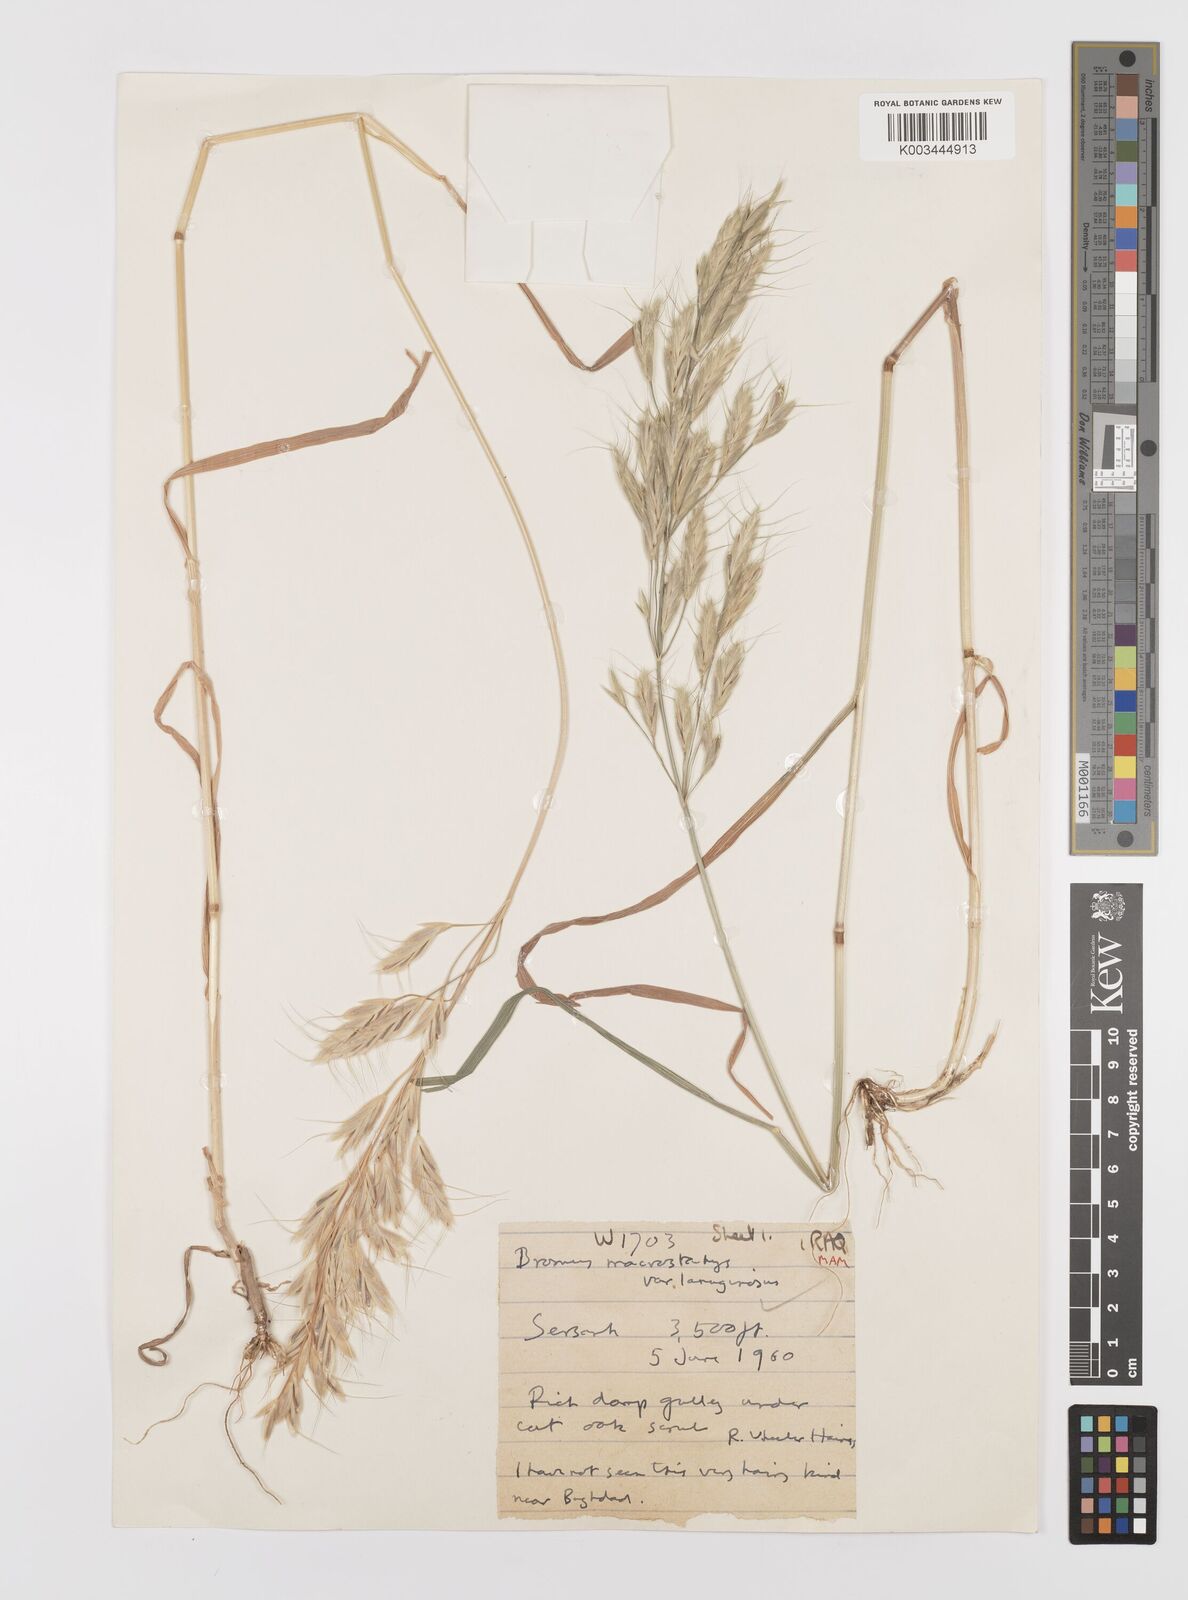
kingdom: Plantae
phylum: Tracheophyta
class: Liliopsida
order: Poales
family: Poaceae
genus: Bromus
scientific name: Bromus lanceolatus
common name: Mediterranean brome
